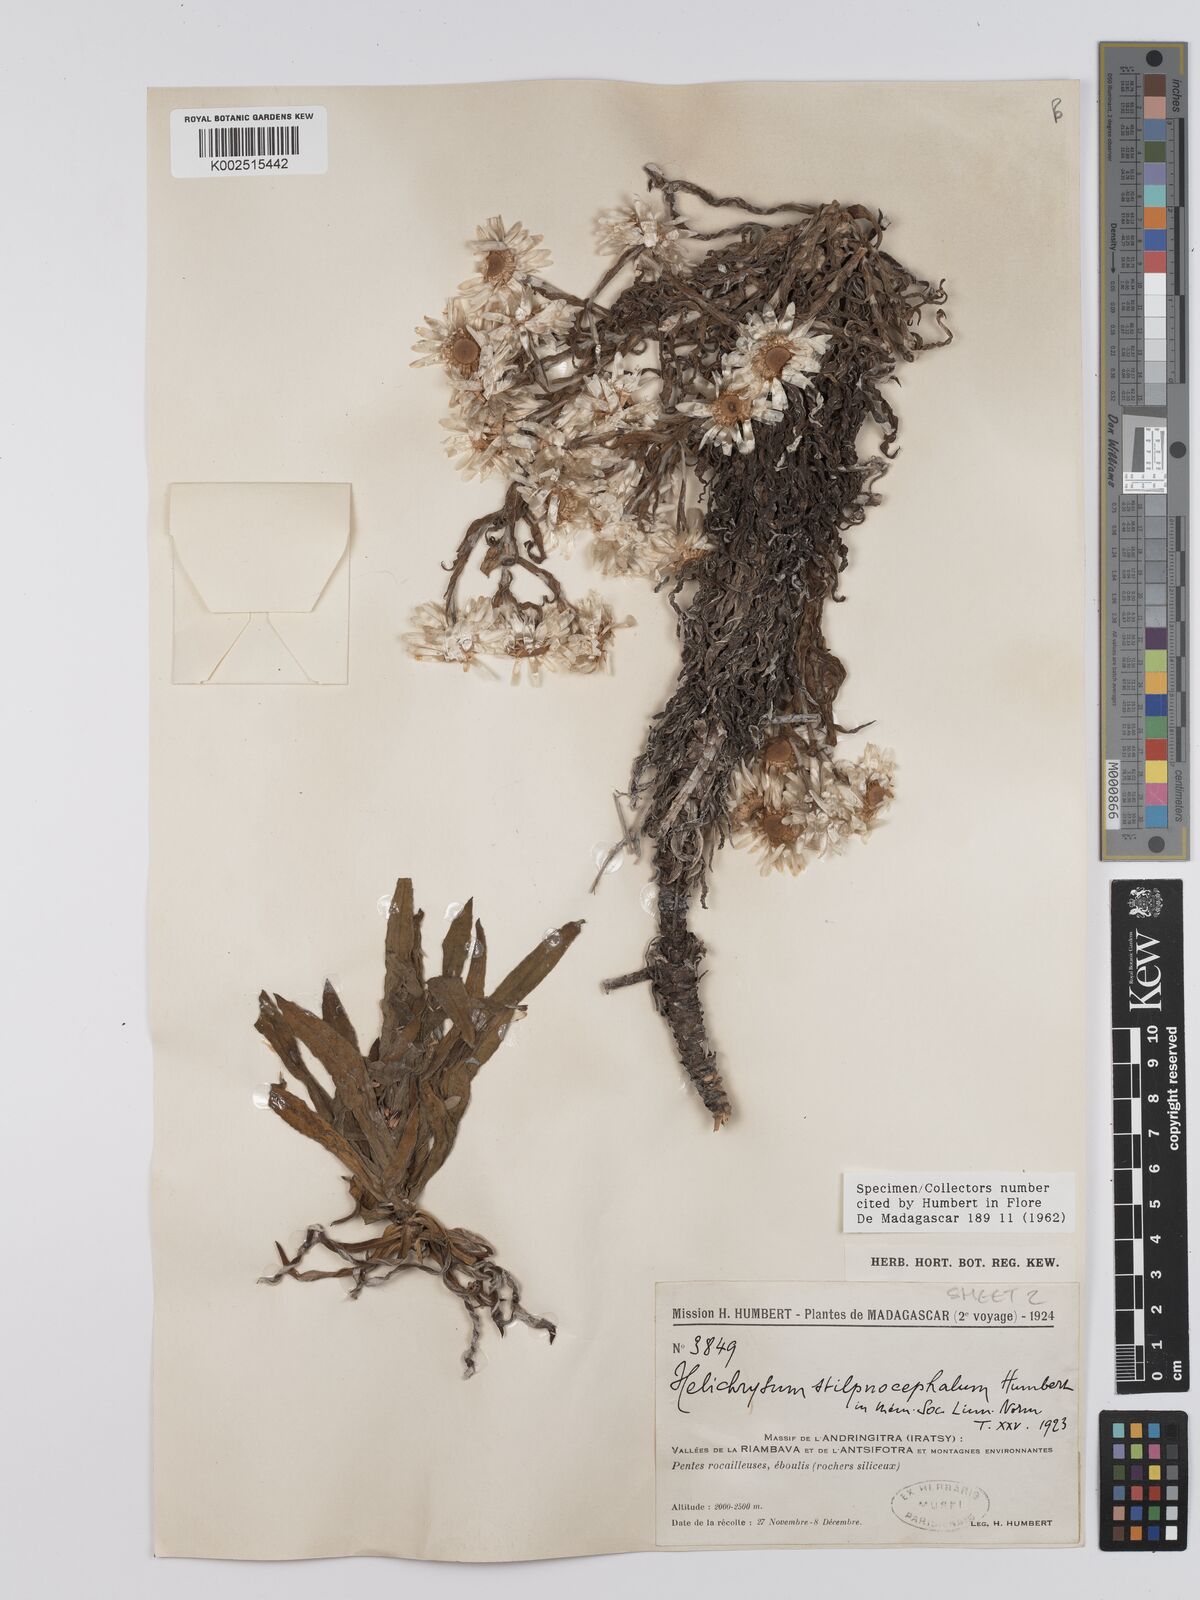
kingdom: Plantae
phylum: Tracheophyta
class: Magnoliopsida
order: Asterales
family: Asteraceae
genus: Helichrysum
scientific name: Helichrysum stilpnocephalum
